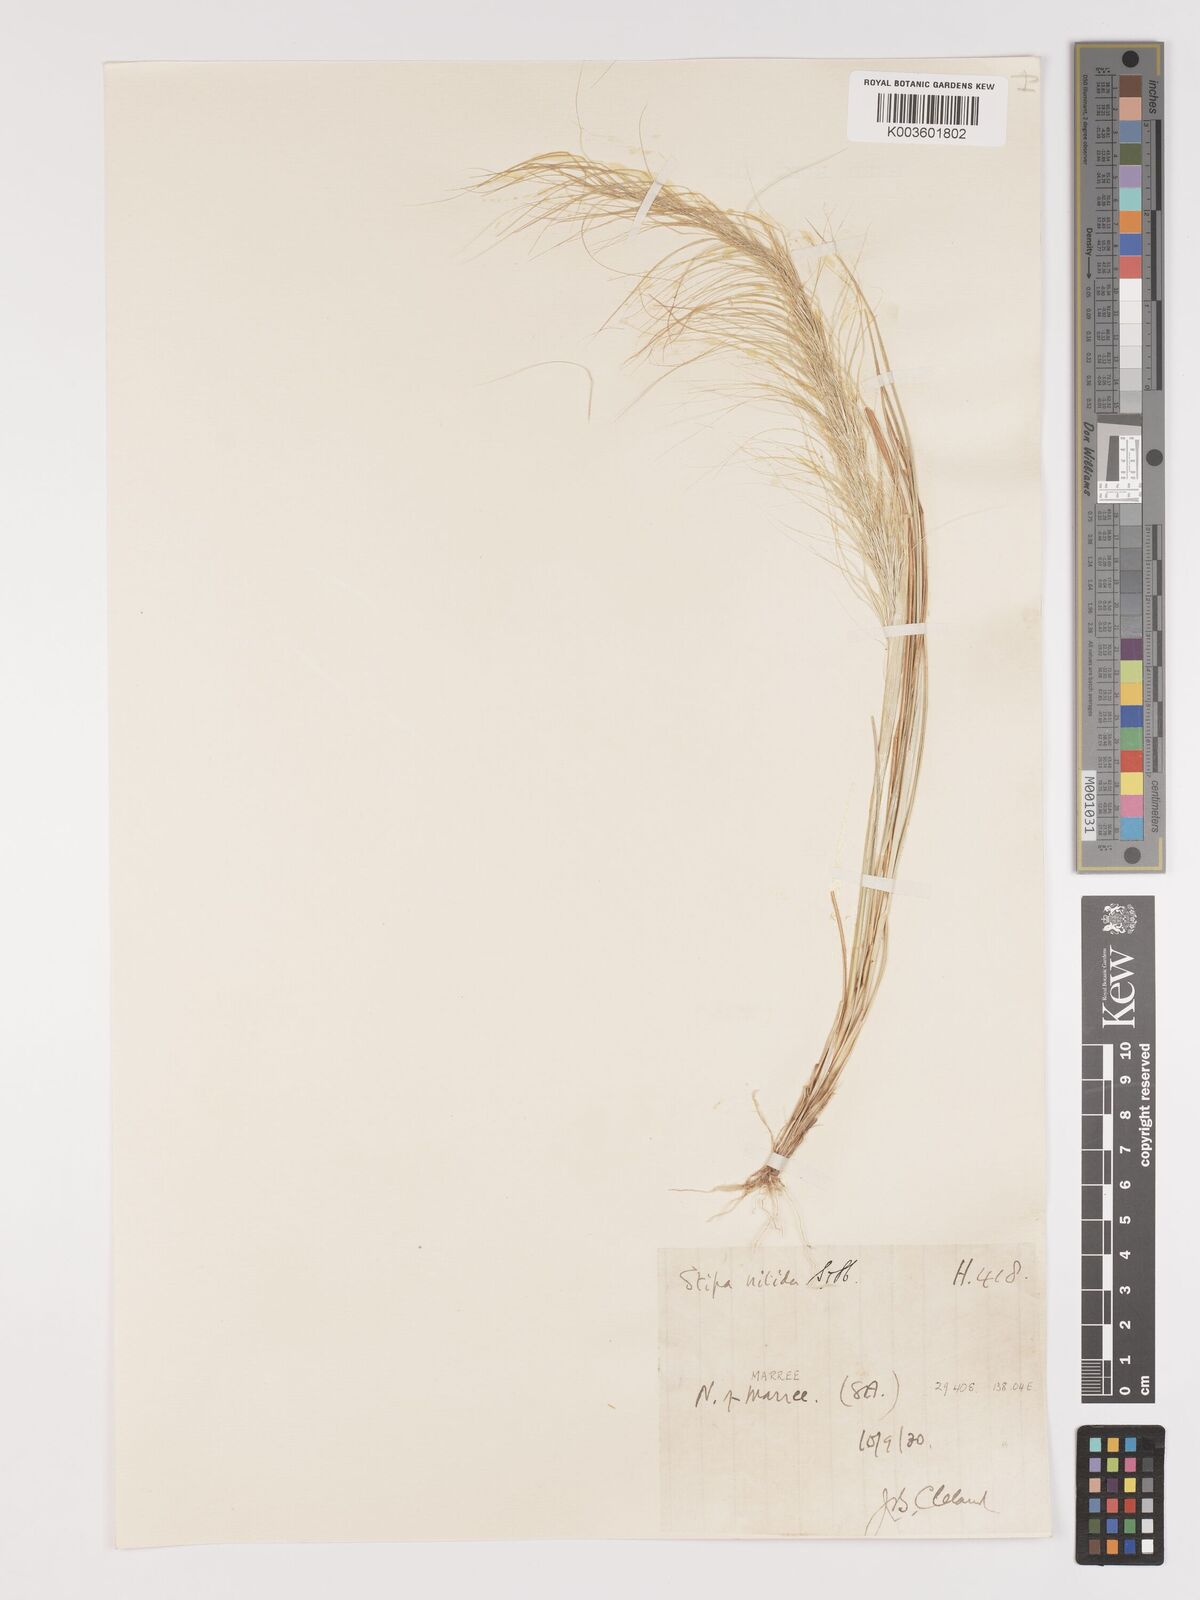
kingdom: Plantae
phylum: Tracheophyta
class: Liliopsida
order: Poales
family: Poaceae
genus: Austrostipa
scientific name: Austrostipa nitida
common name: Balcarra grass
